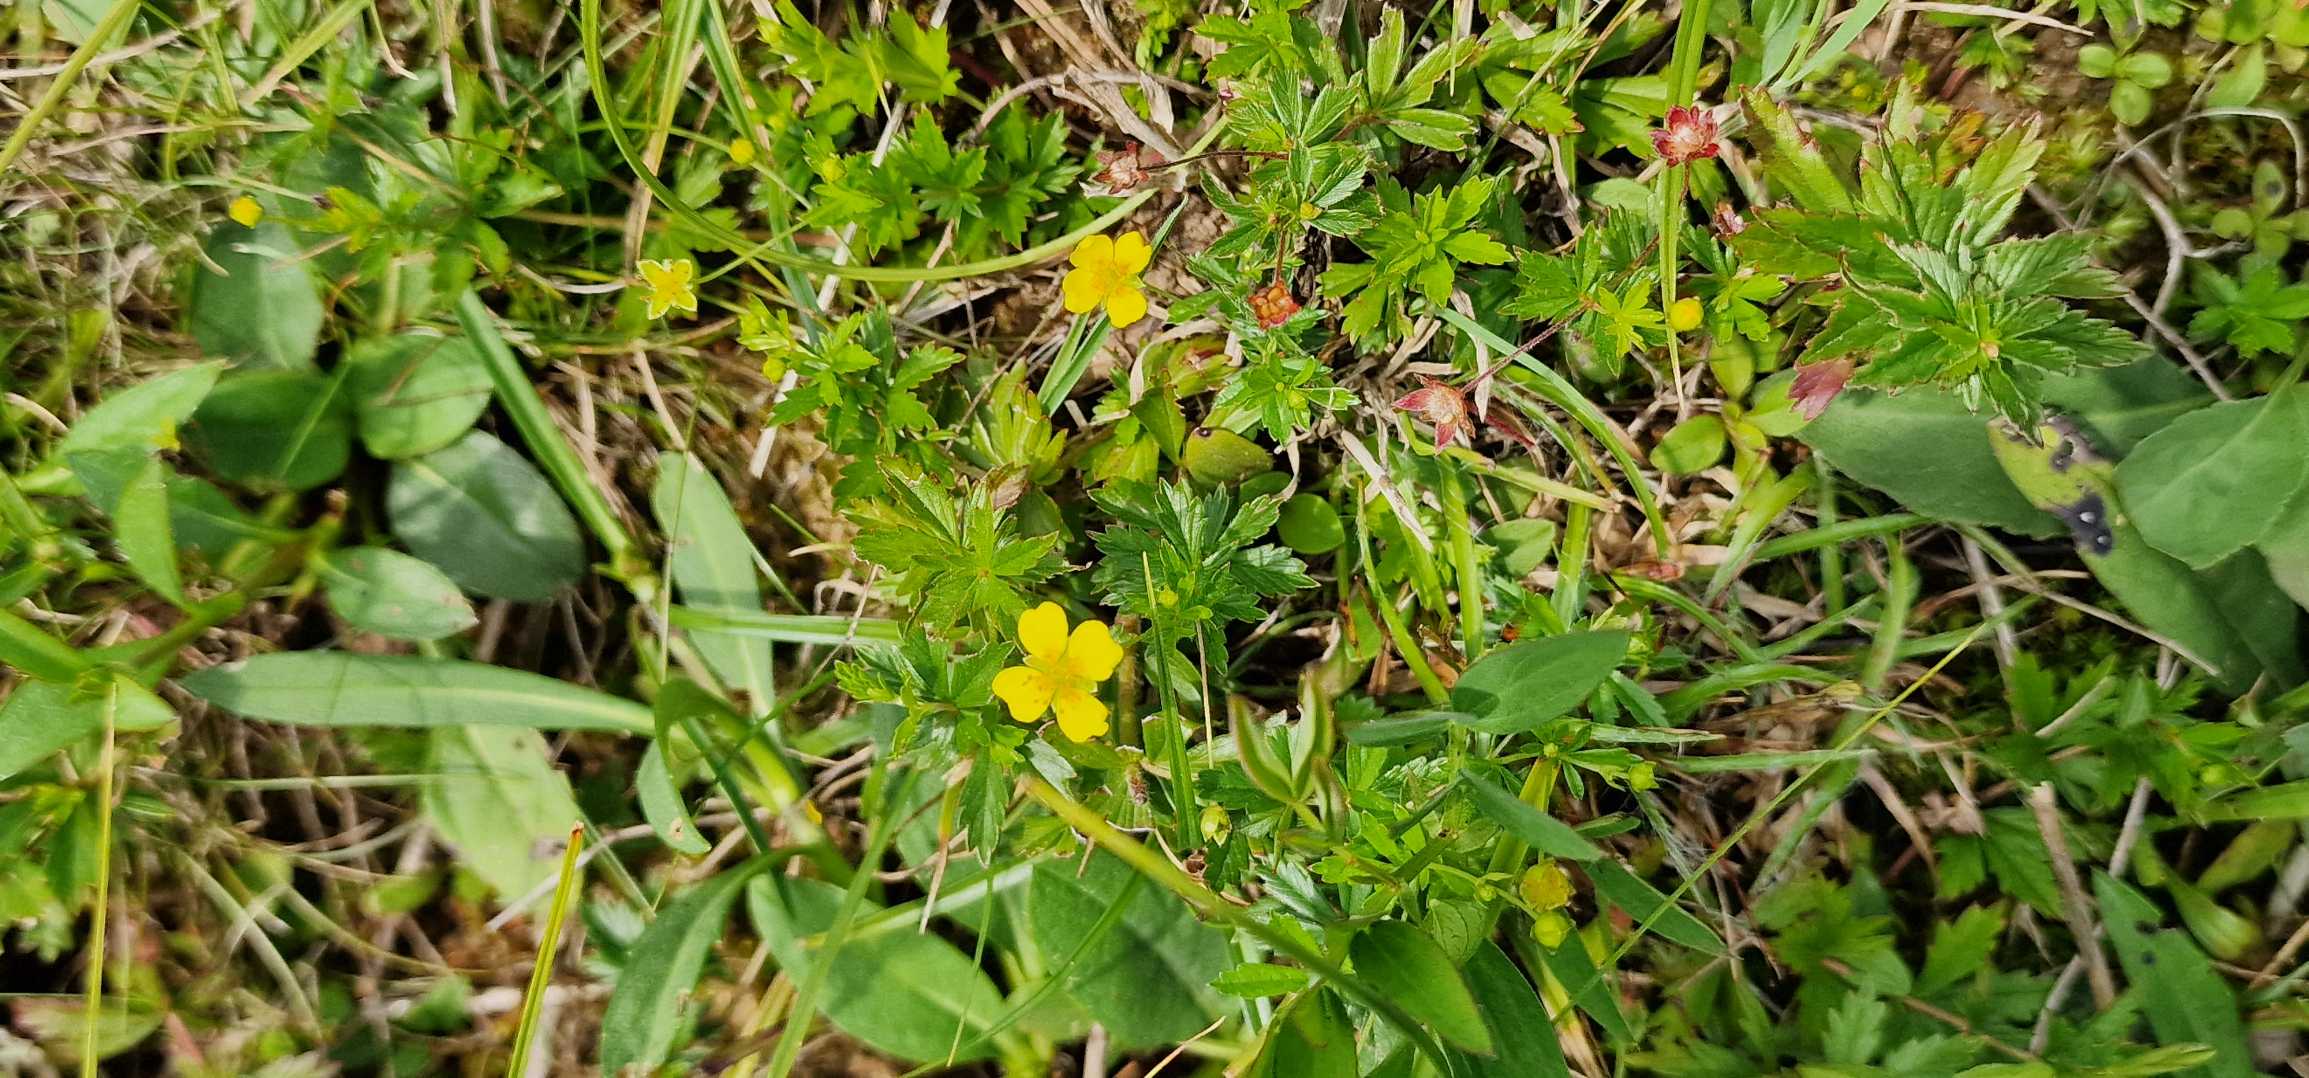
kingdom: Plantae
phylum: Tracheophyta
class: Magnoliopsida
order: Rosales
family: Rosaceae
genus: Potentilla
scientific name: Potentilla erecta
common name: Tormentil
